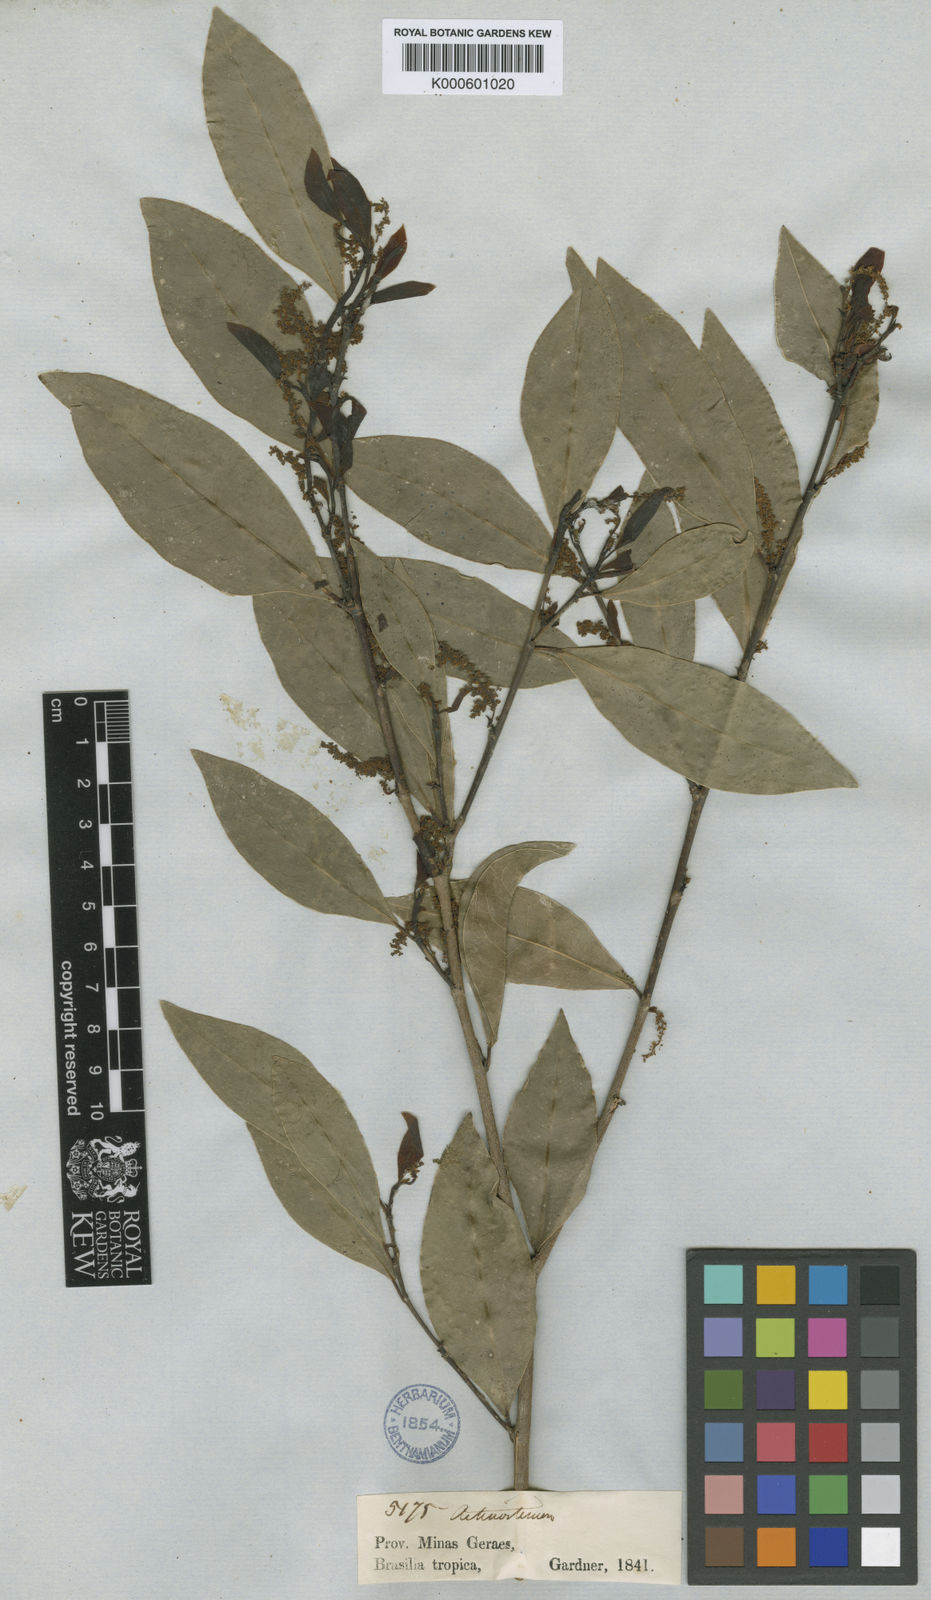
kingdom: Plantae
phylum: Tracheophyta
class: Magnoliopsida
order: Malpighiales
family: Euphorbiaceae
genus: Actinostemon
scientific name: Actinostemon concolor
